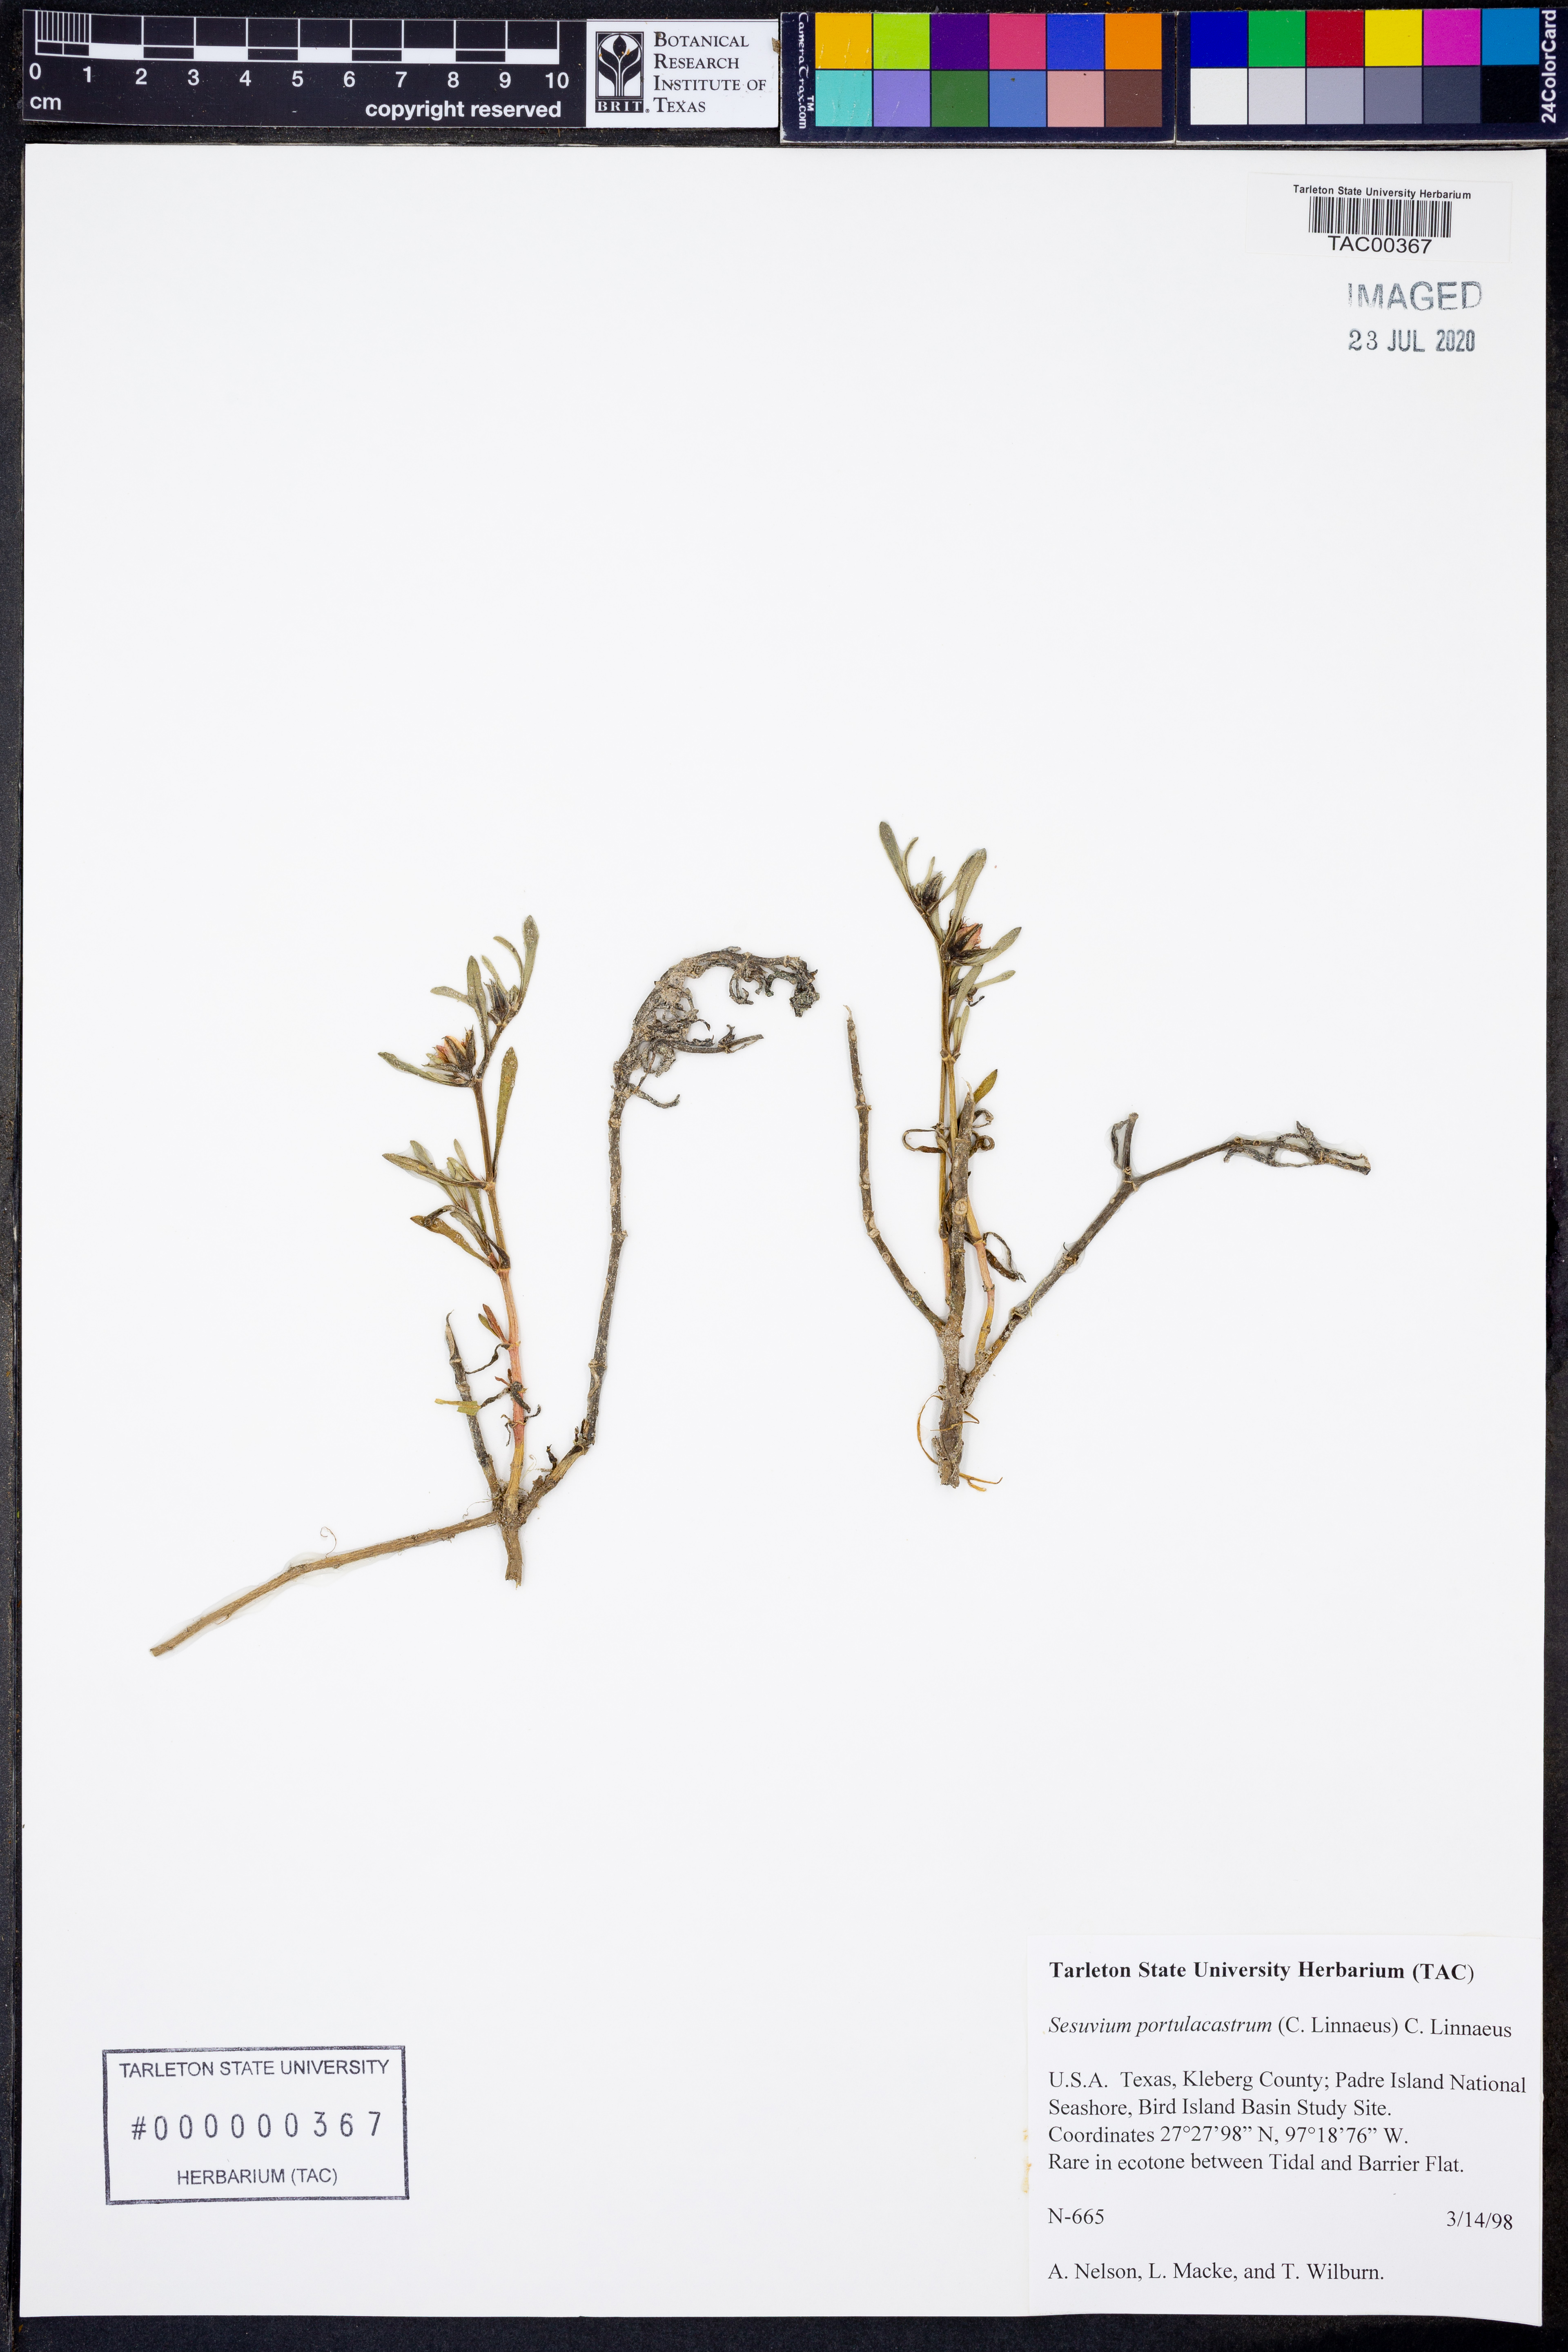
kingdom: Plantae
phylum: Tracheophyta
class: Magnoliopsida
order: Caryophyllales
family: Aizoaceae
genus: Sesuvium
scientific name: Sesuvium portulacastrum
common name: Sea-purslane
